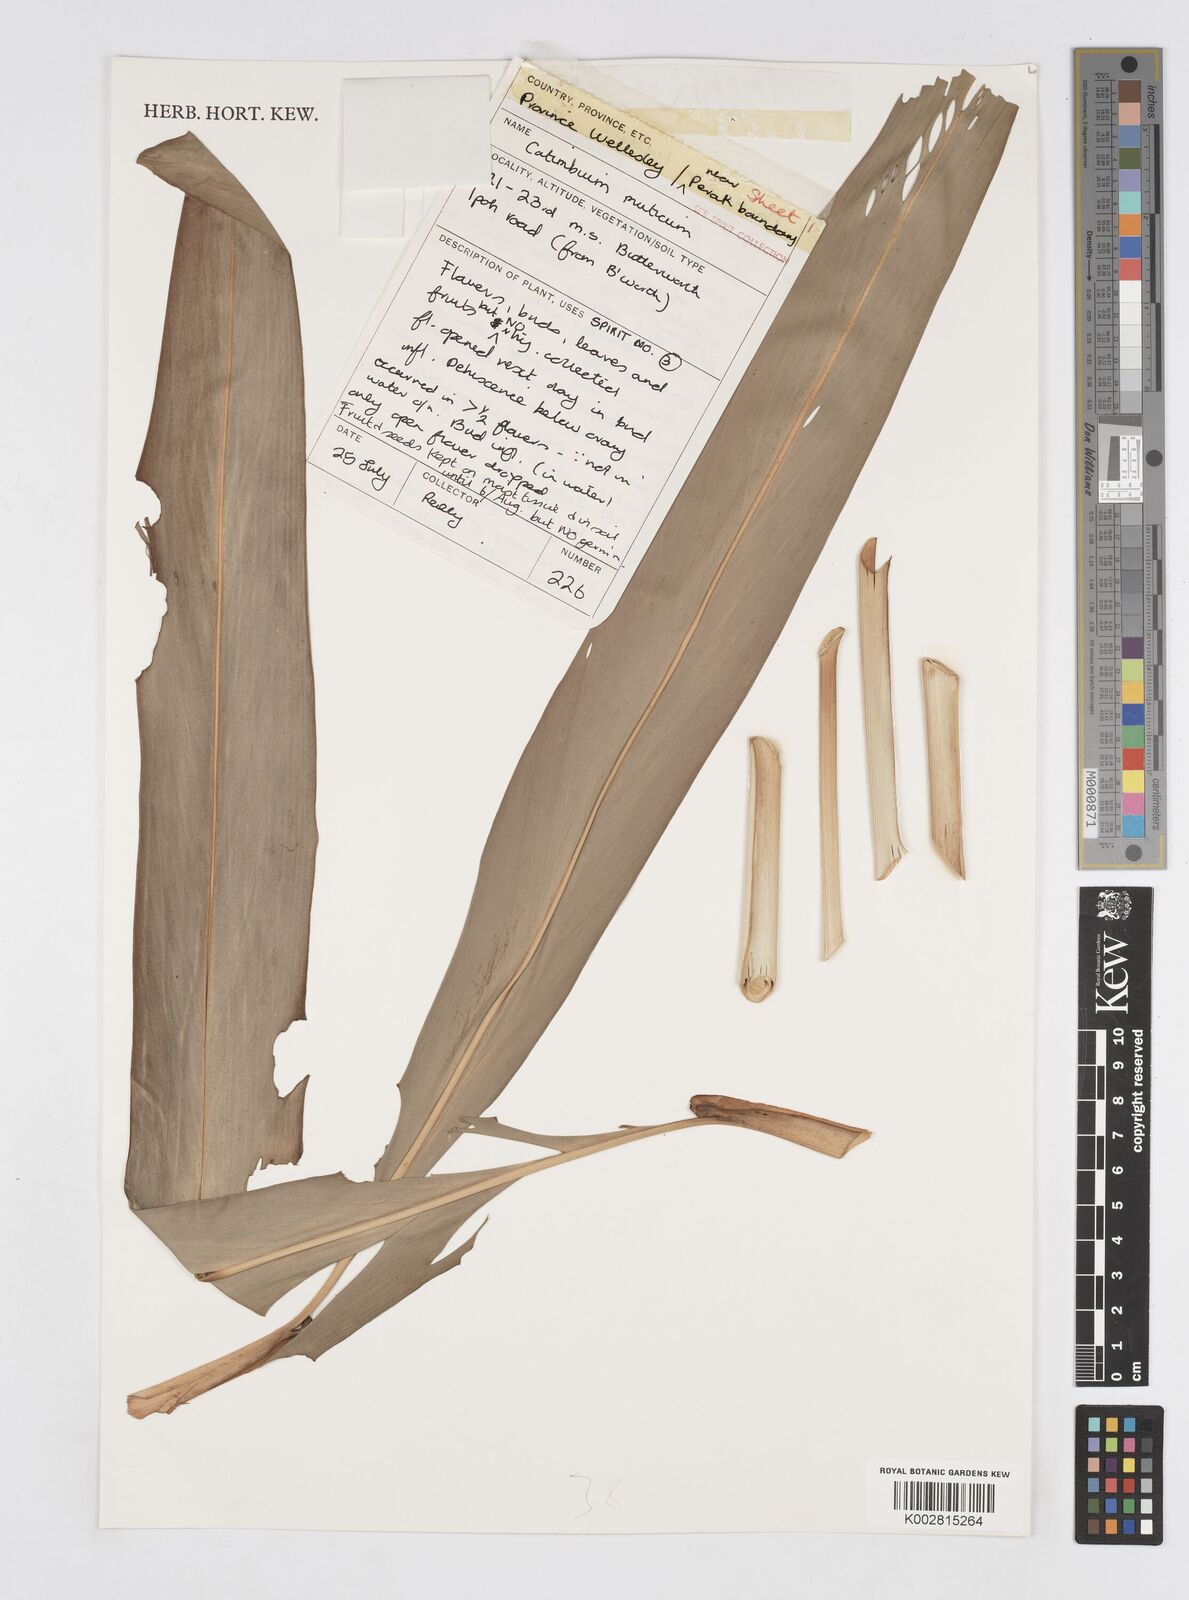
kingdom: Plantae
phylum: Tracheophyta
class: Liliopsida
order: Zingiberales
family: Zingiberaceae
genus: Alpinia
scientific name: Alpinia mutica
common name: Small shell ginger
